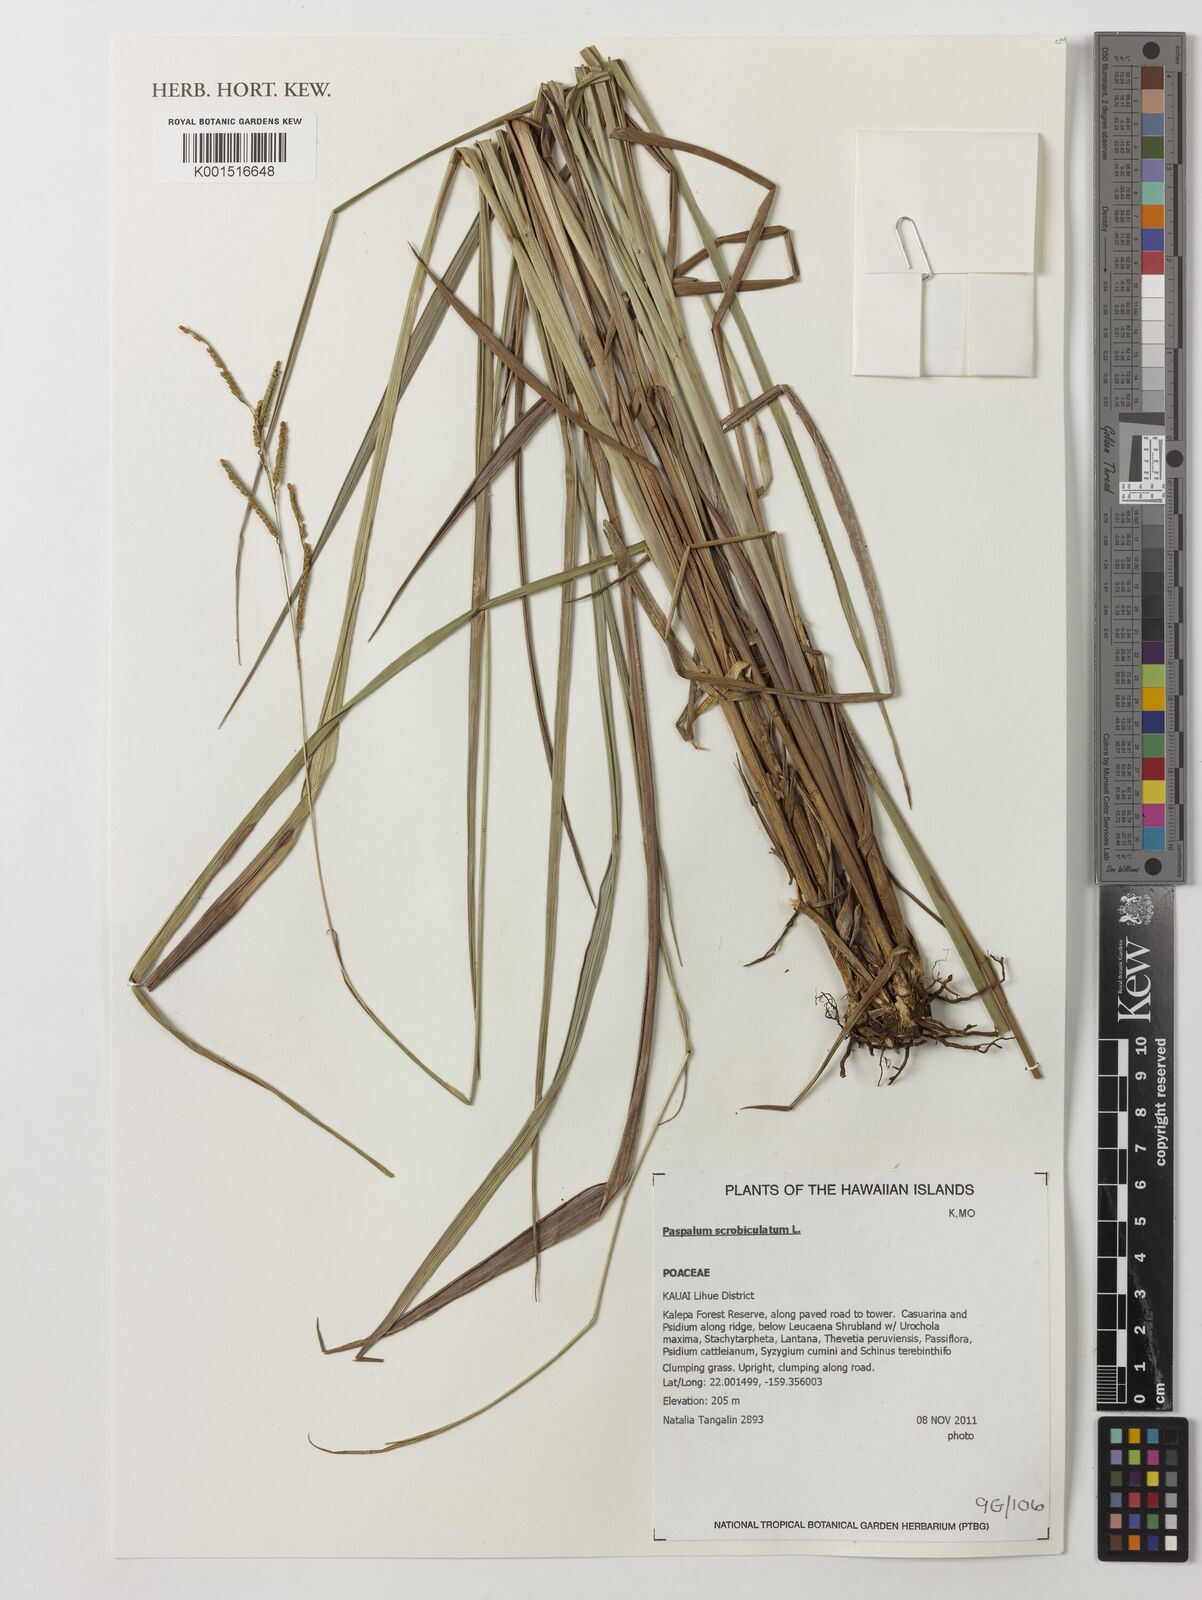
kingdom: Plantae
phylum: Tracheophyta
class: Liliopsida
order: Poales
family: Poaceae
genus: Paspalum
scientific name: Paspalum scrobiculatum
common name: Kodo millet
